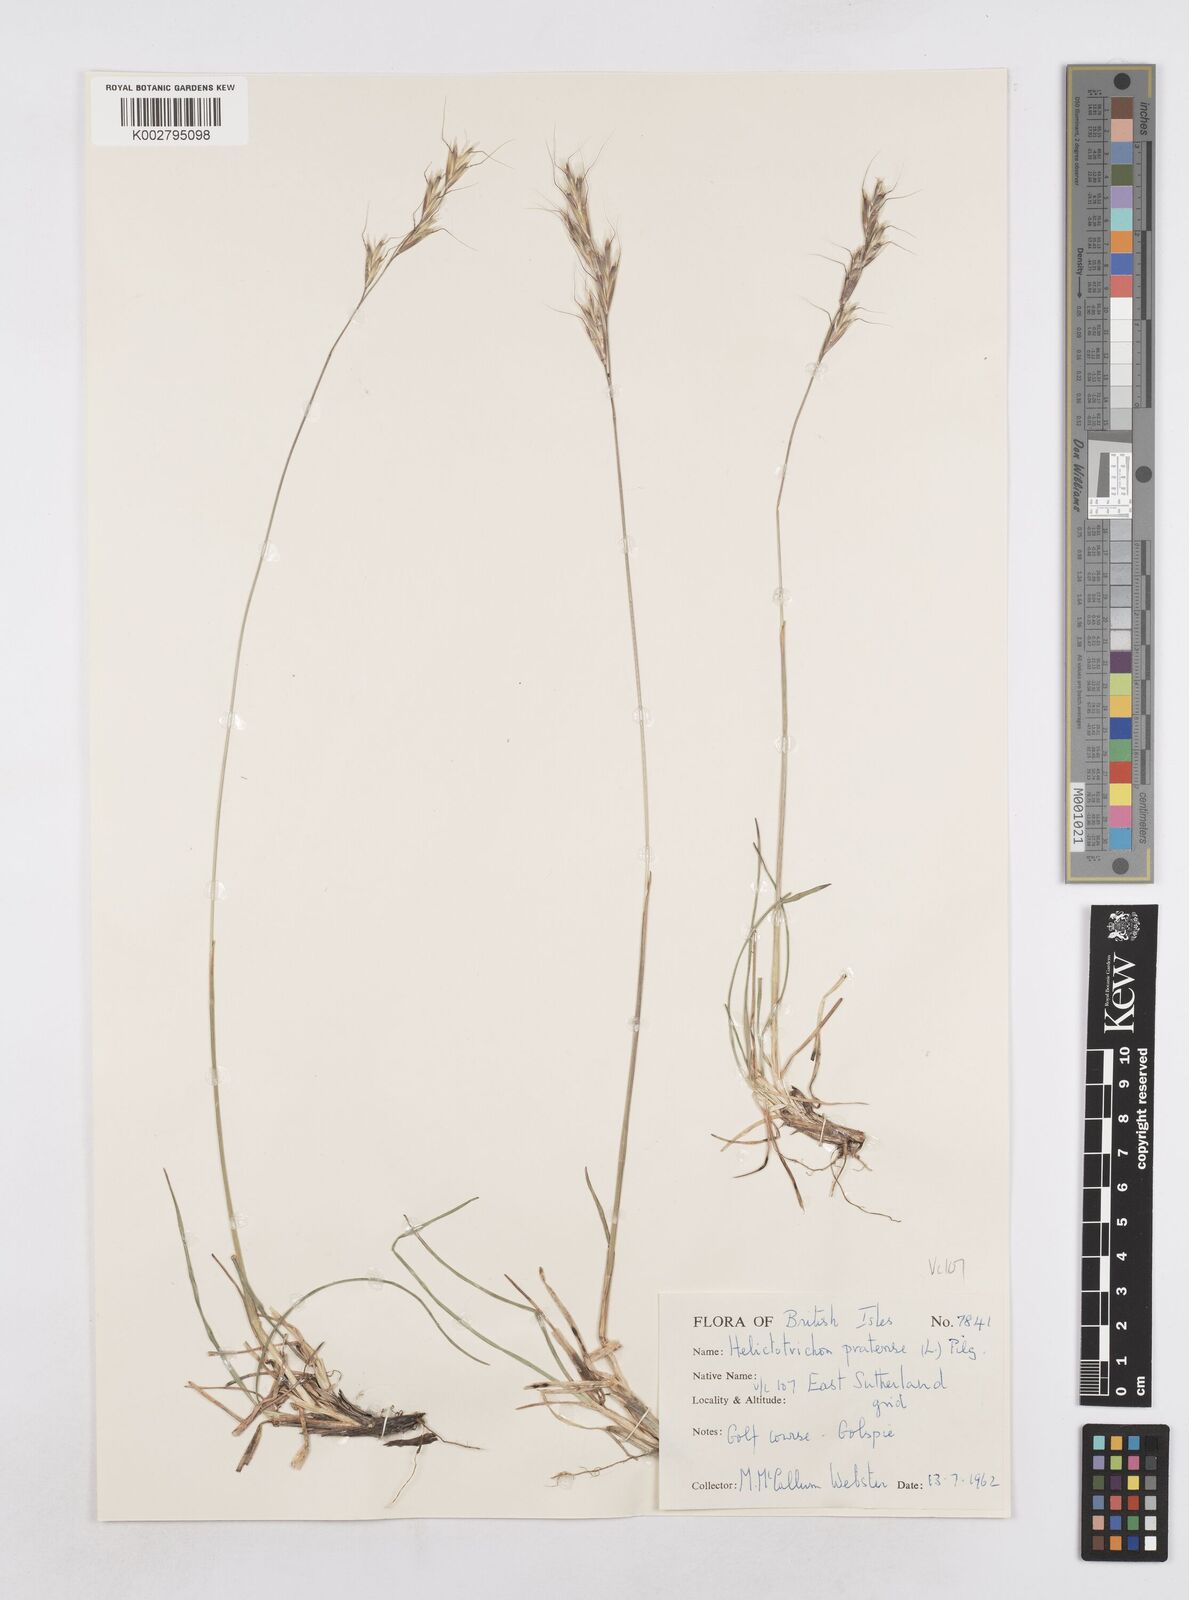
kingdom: Plantae
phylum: Tracheophyta
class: Liliopsida
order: Poales
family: Poaceae
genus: Helictotrichon
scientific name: Helictotrichon
